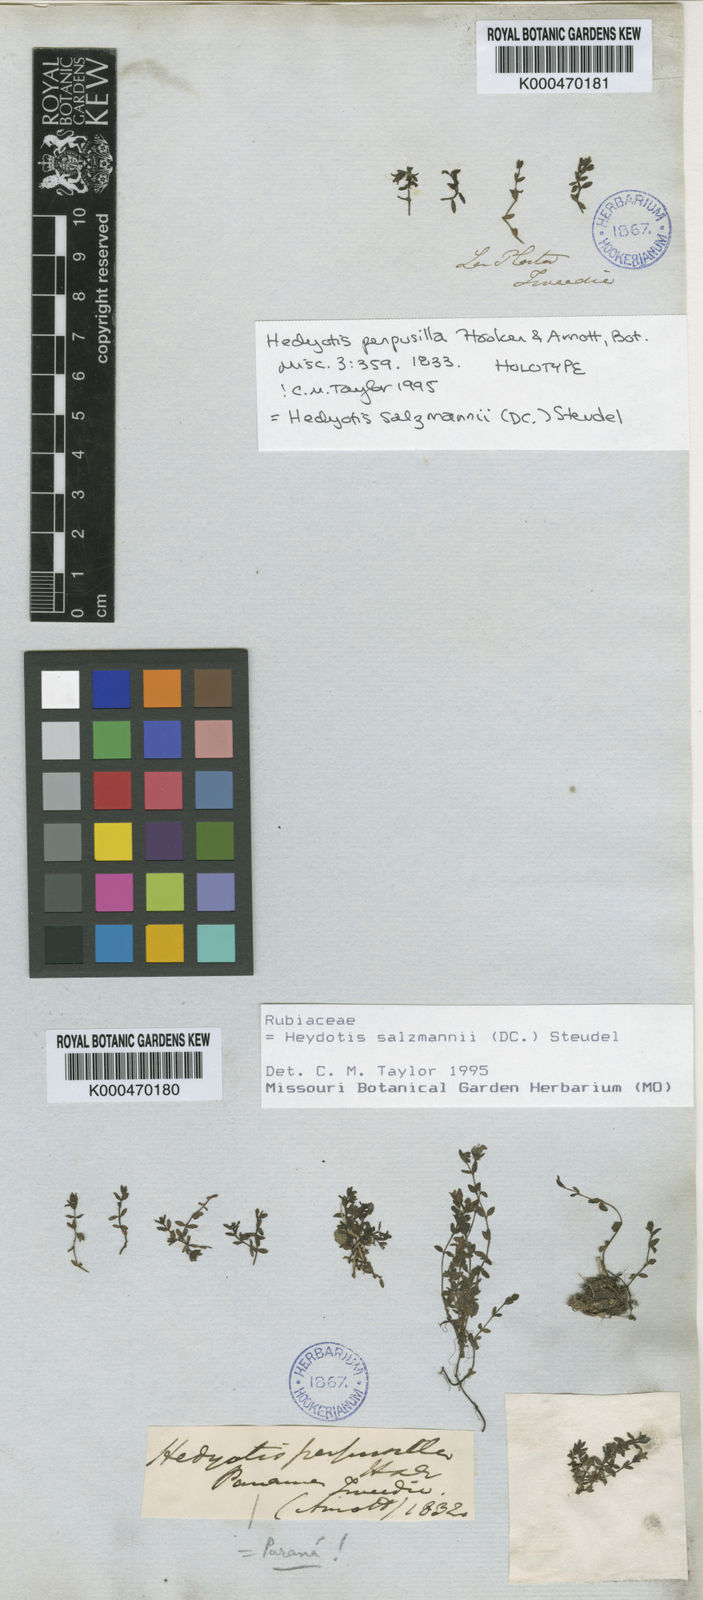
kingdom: Plantae
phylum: Tracheophyta
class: Magnoliopsida
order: Gentianales
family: Rubiaceae
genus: Oldenlandia
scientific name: Oldenlandia
